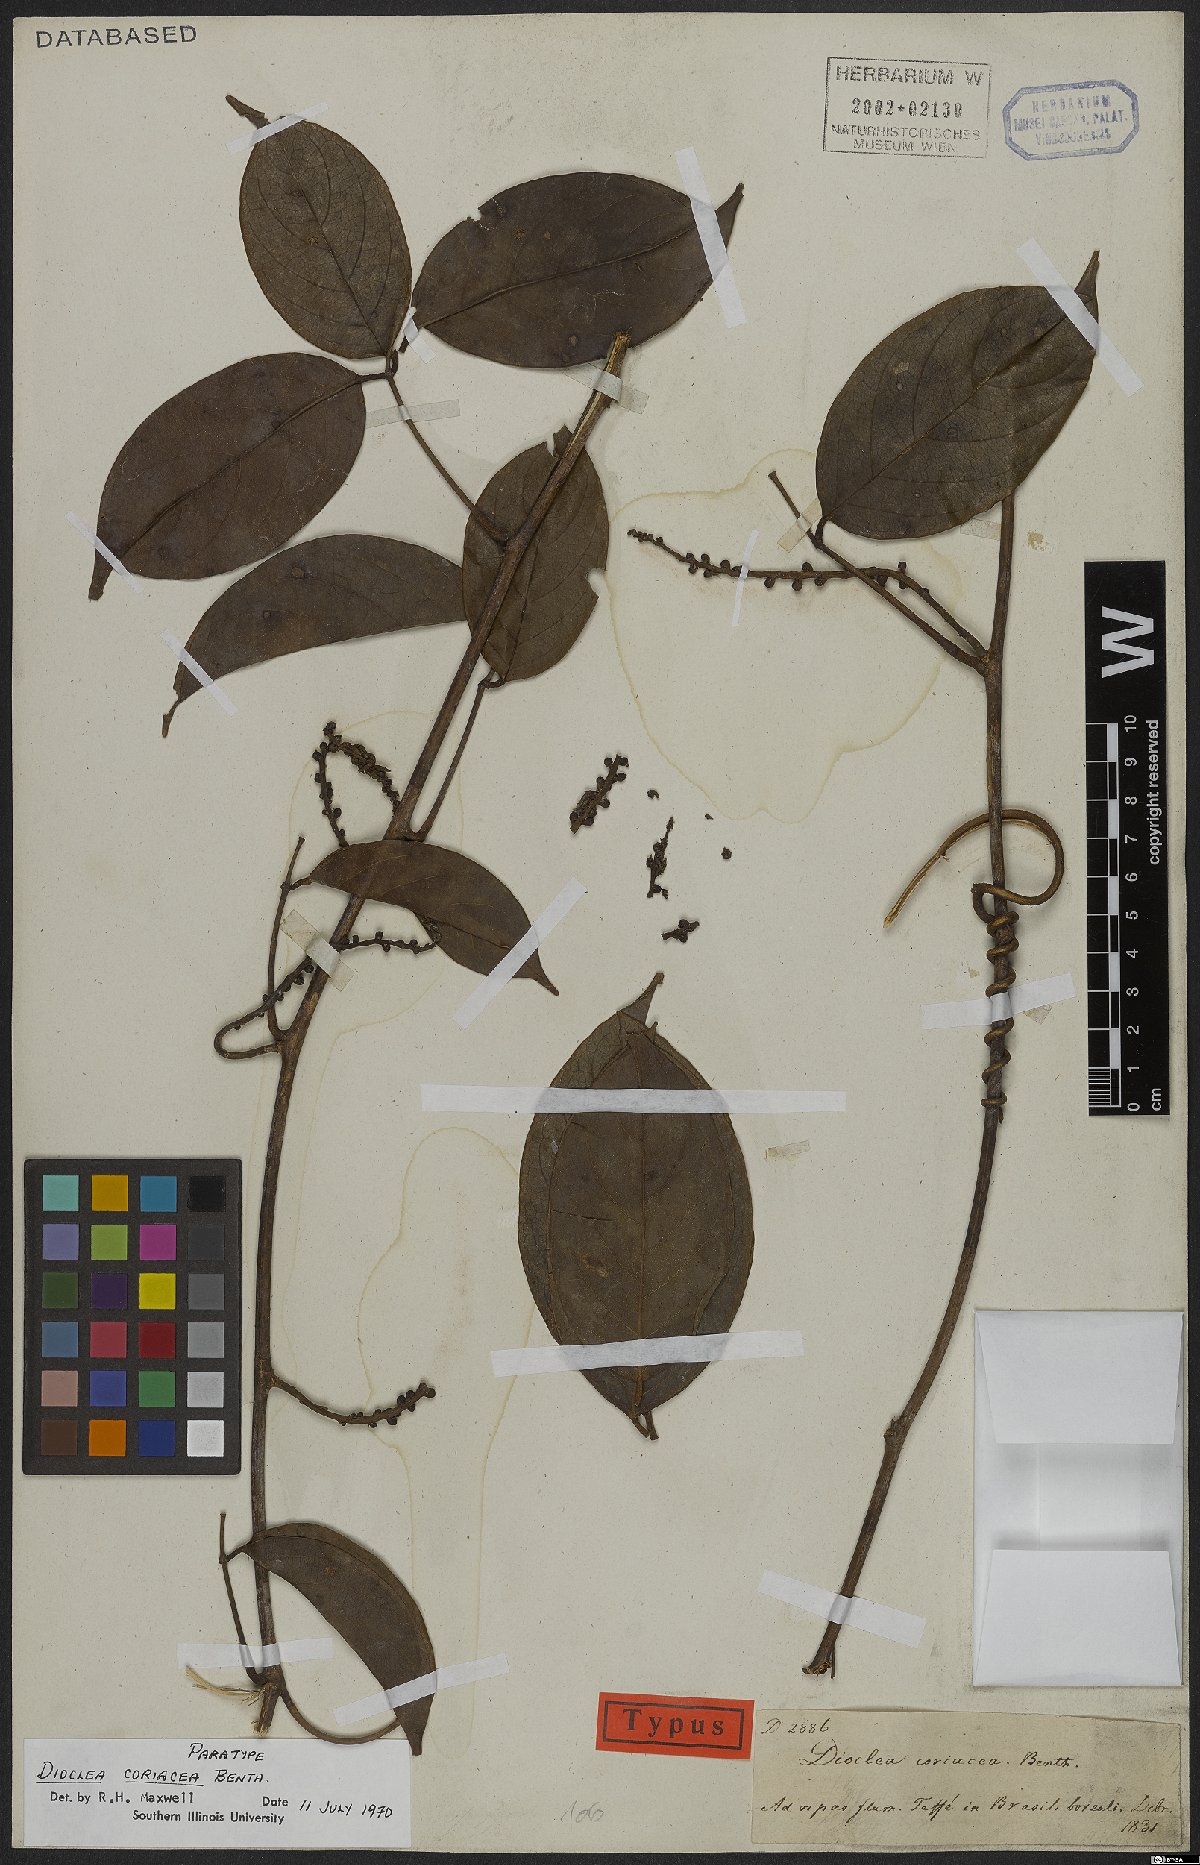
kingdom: Plantae
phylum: Tracheophyta
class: Magnoliopsida
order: Fabales
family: Fabaceae
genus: Macropsychanthus
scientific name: Macropsychanthus coriaceus
